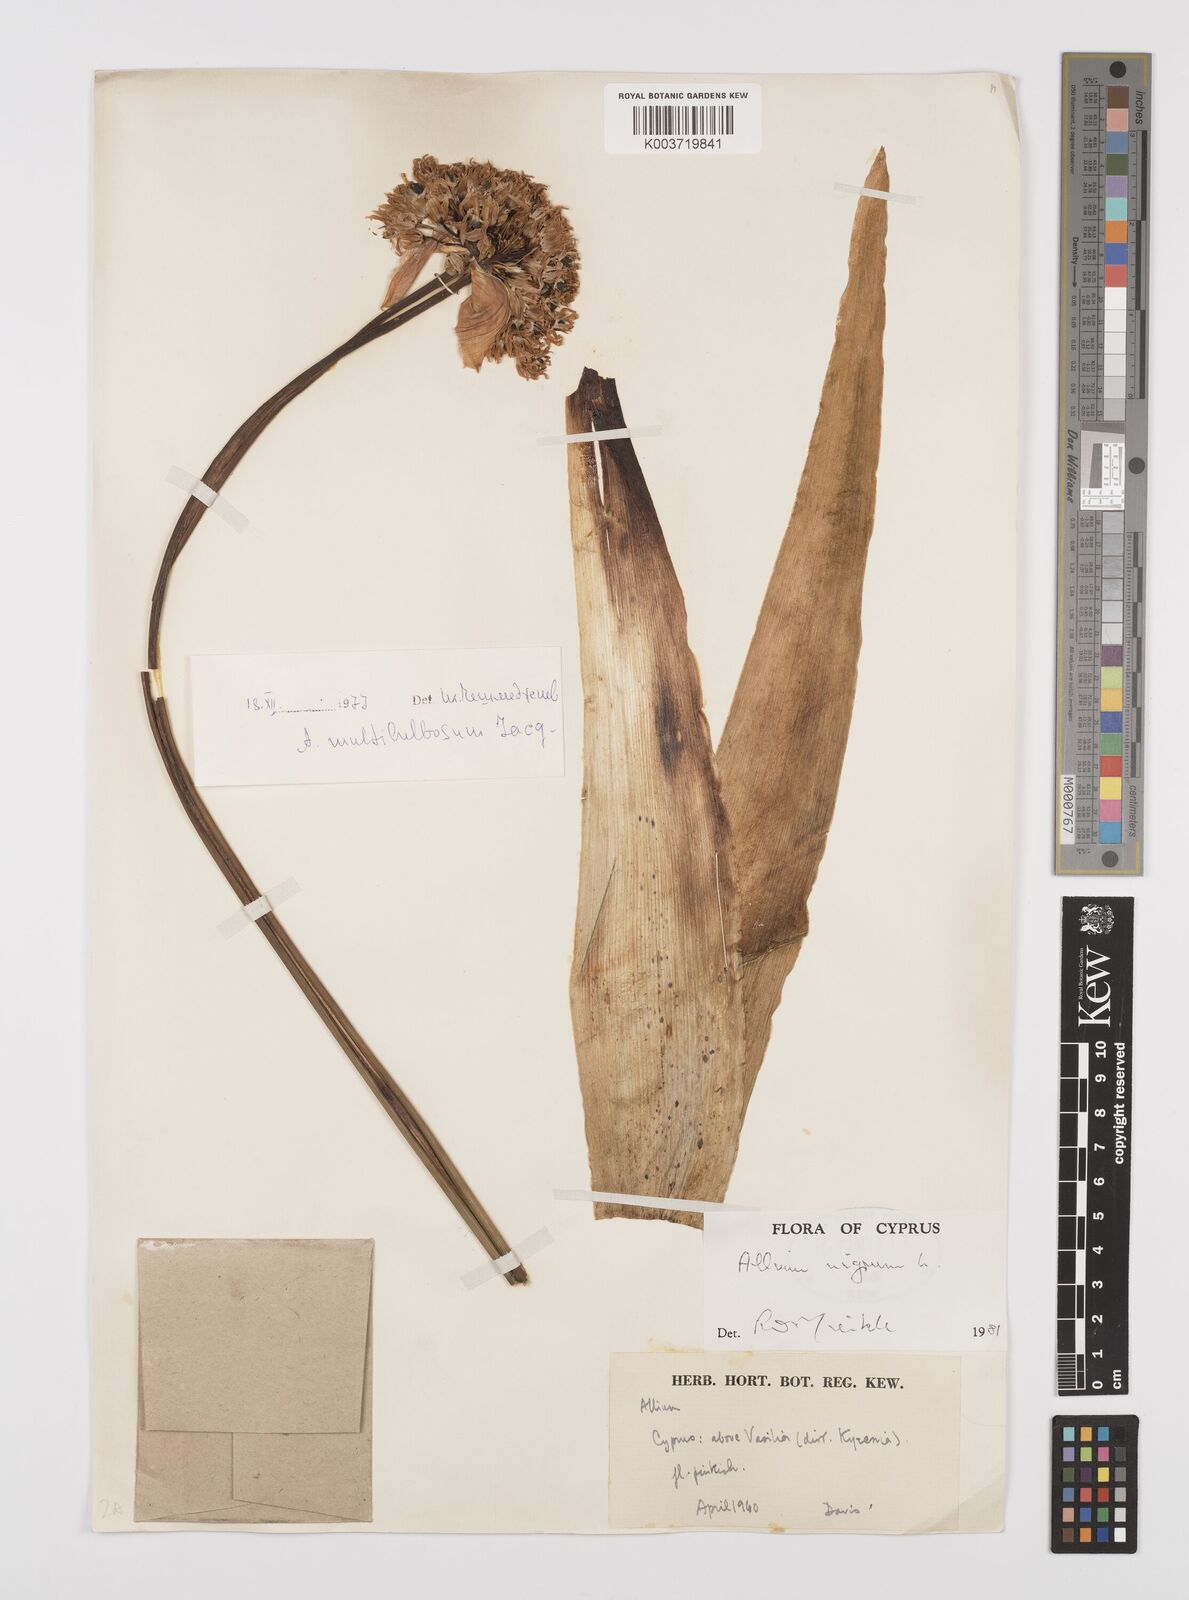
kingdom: Plantae
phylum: Tracheophyta
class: Liliopsida
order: Asparagales
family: Amaryllidaceae
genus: Allium
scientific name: Allium nigrum
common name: Black garlic
